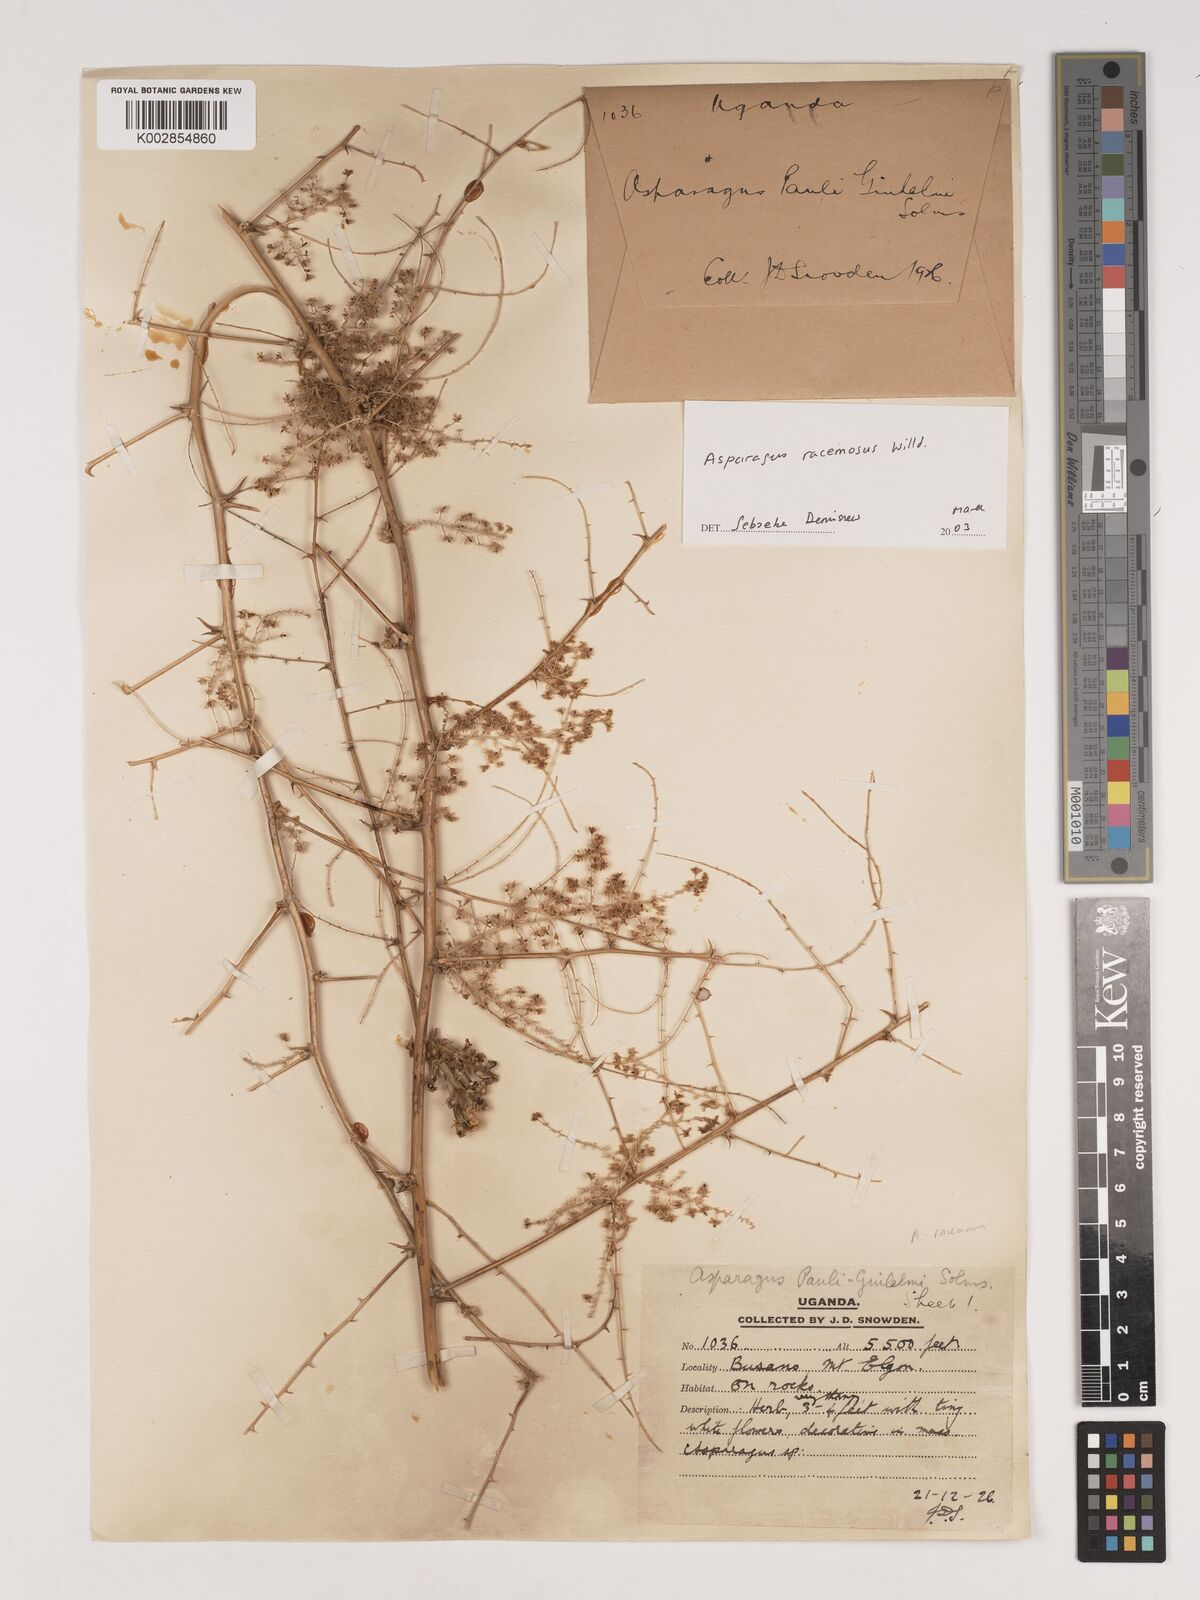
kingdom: Plantae
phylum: Tracheophyta
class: Liliopsida
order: Asparagales
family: Asparagaceae
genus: Asparagus
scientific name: Asparagus racemosus
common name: Asparagus-fern
